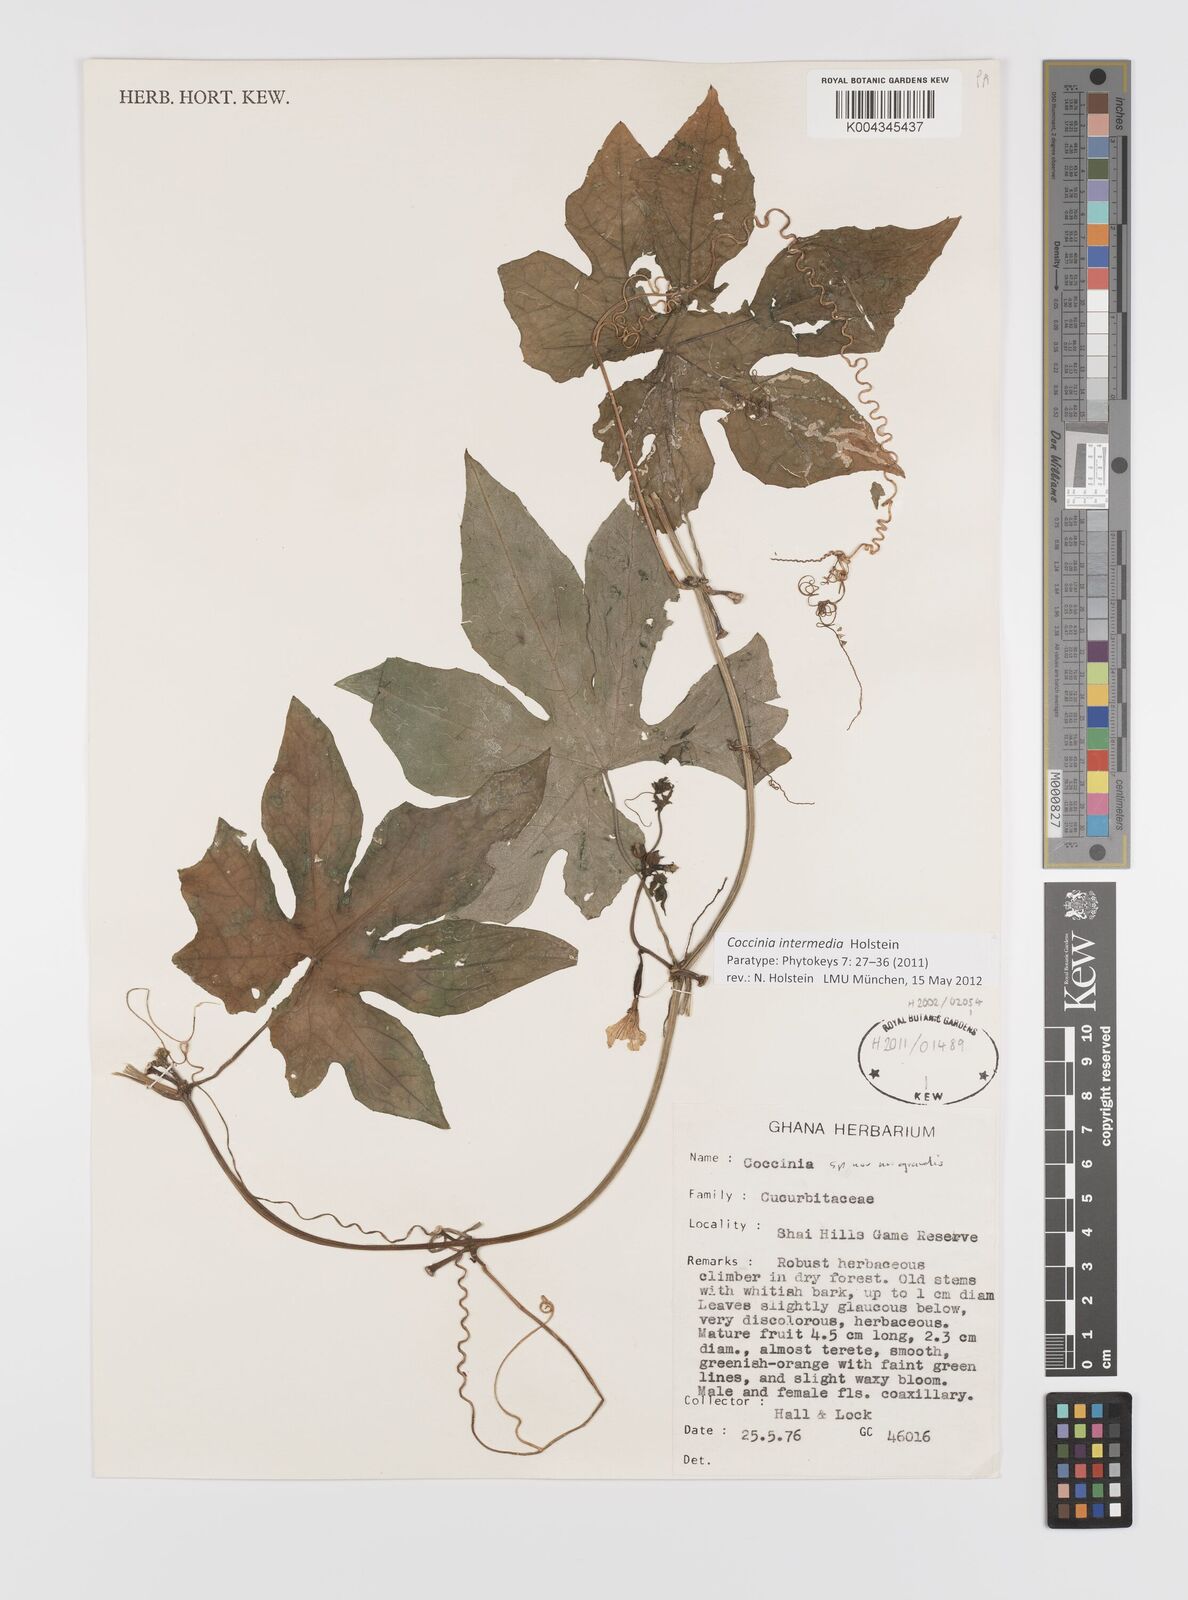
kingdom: Plantae
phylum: Tracheophyta
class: Magnoliopsida
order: Cucurbitales
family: Cucurbitaceae
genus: Coccinia
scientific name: Coccinia intermedia
